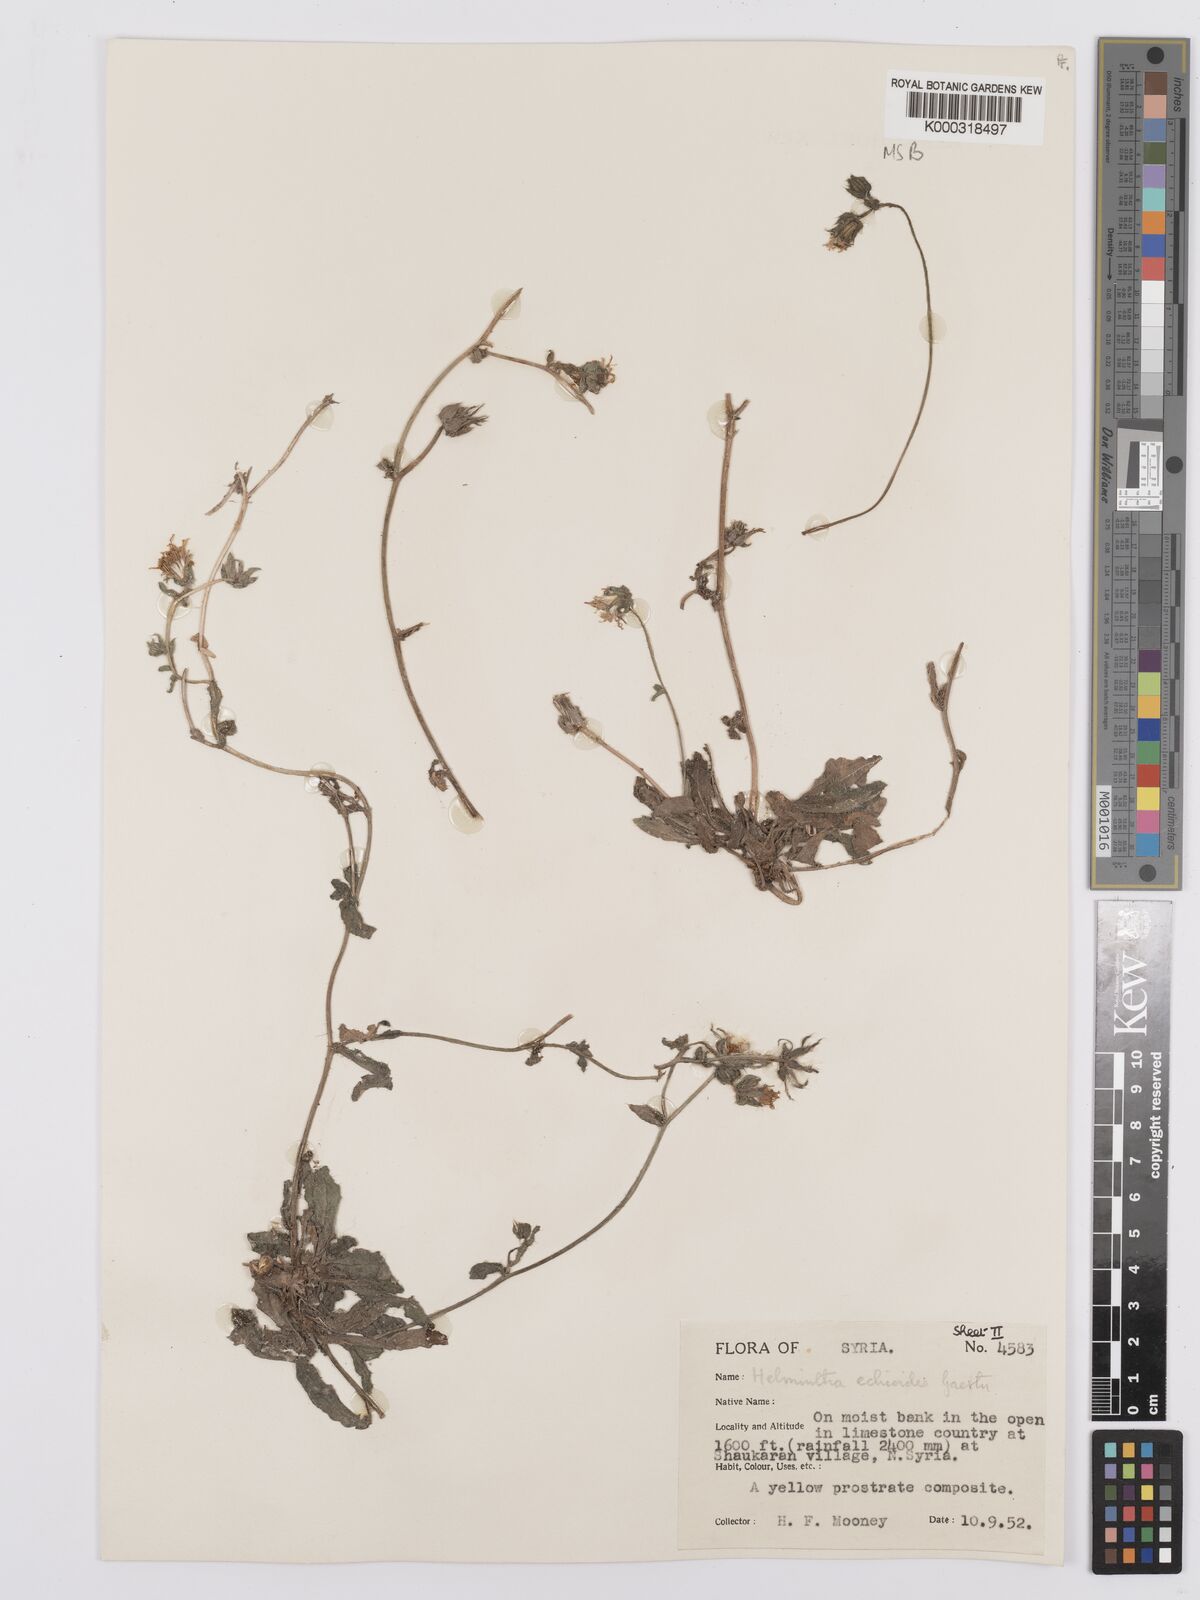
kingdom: Plantae
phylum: Tracheophyta
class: Magnoliopsida
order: Asterales
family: Asteraceae
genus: Helminthotheca
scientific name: Helminthotheca echioides
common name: Ox-tongue
